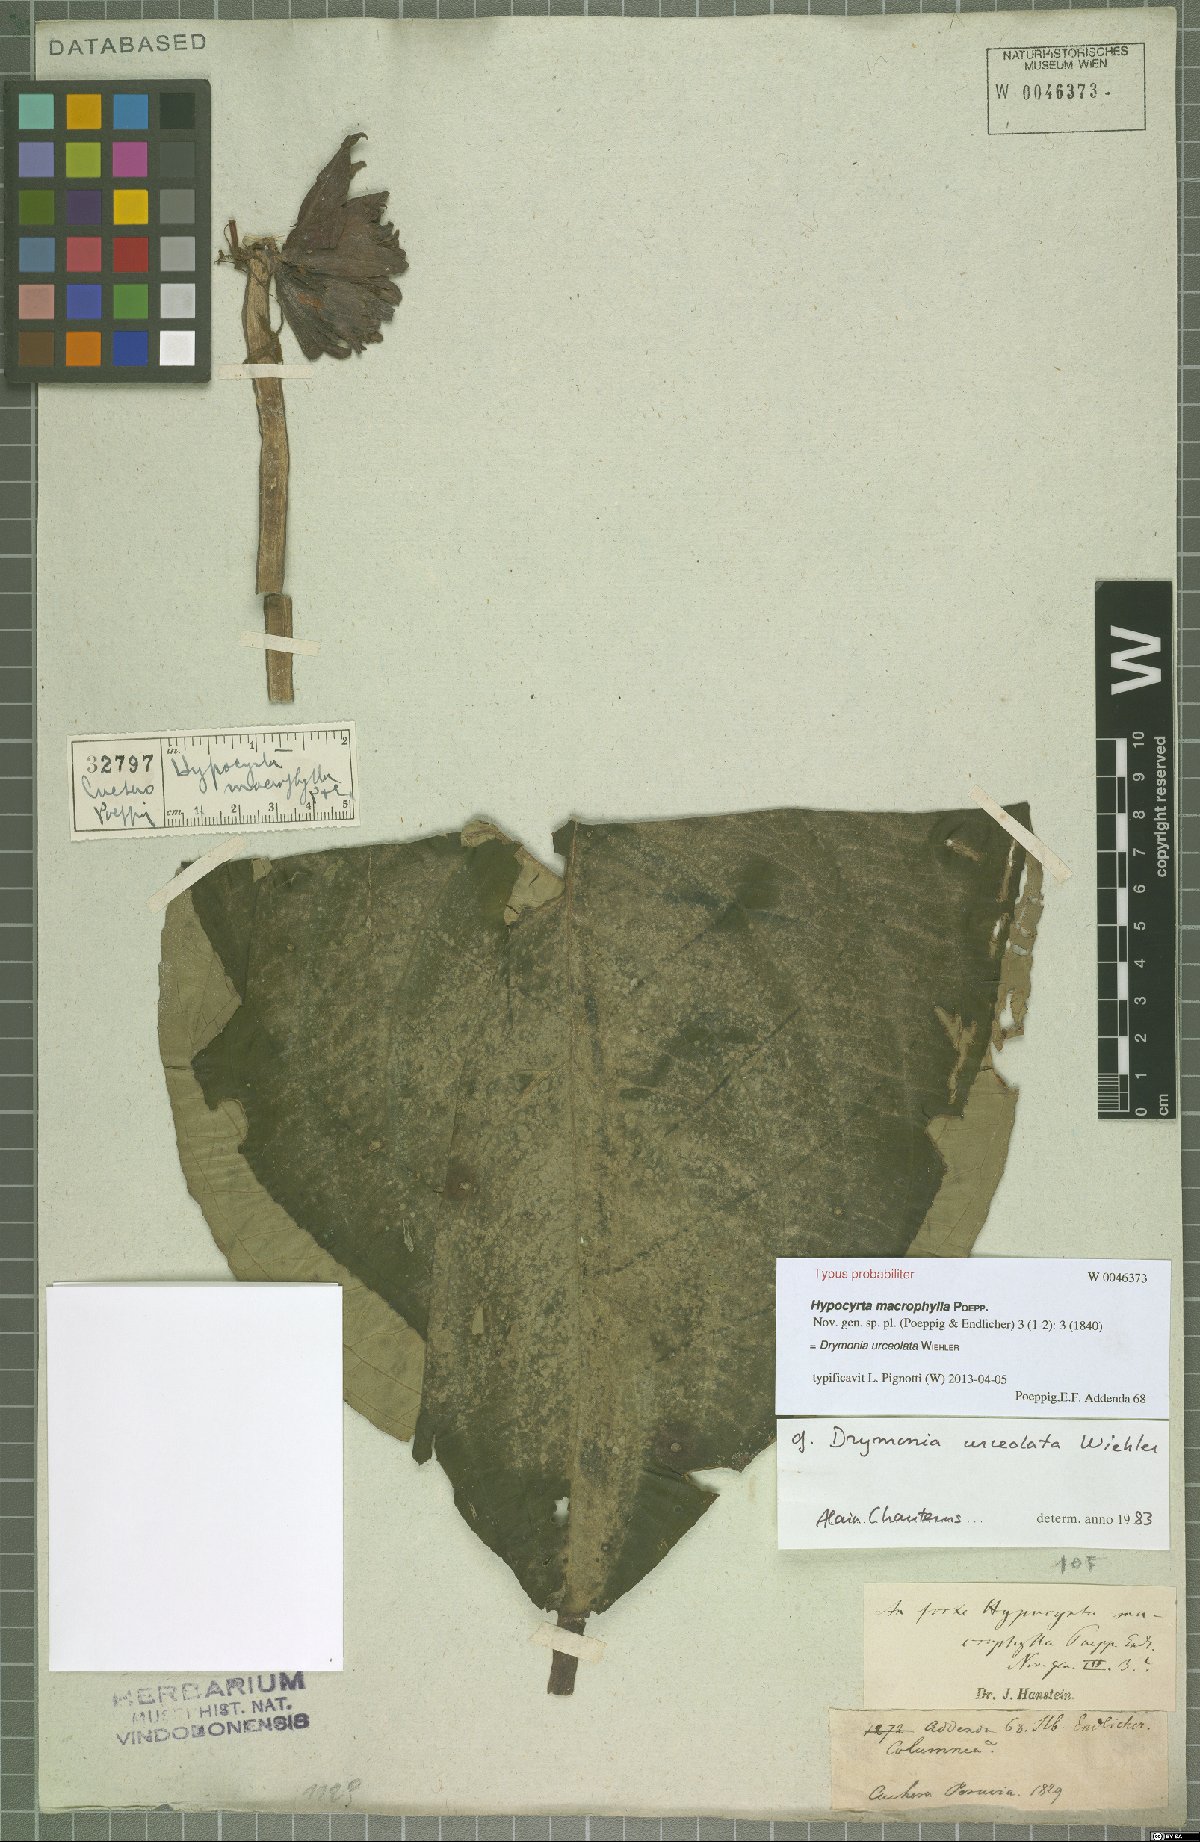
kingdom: Plantae
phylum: Tracheophyta
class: Magnoliopsida
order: Lamiales
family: Gesneriaceae
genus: Drymonia
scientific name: Drymonia urceolata
